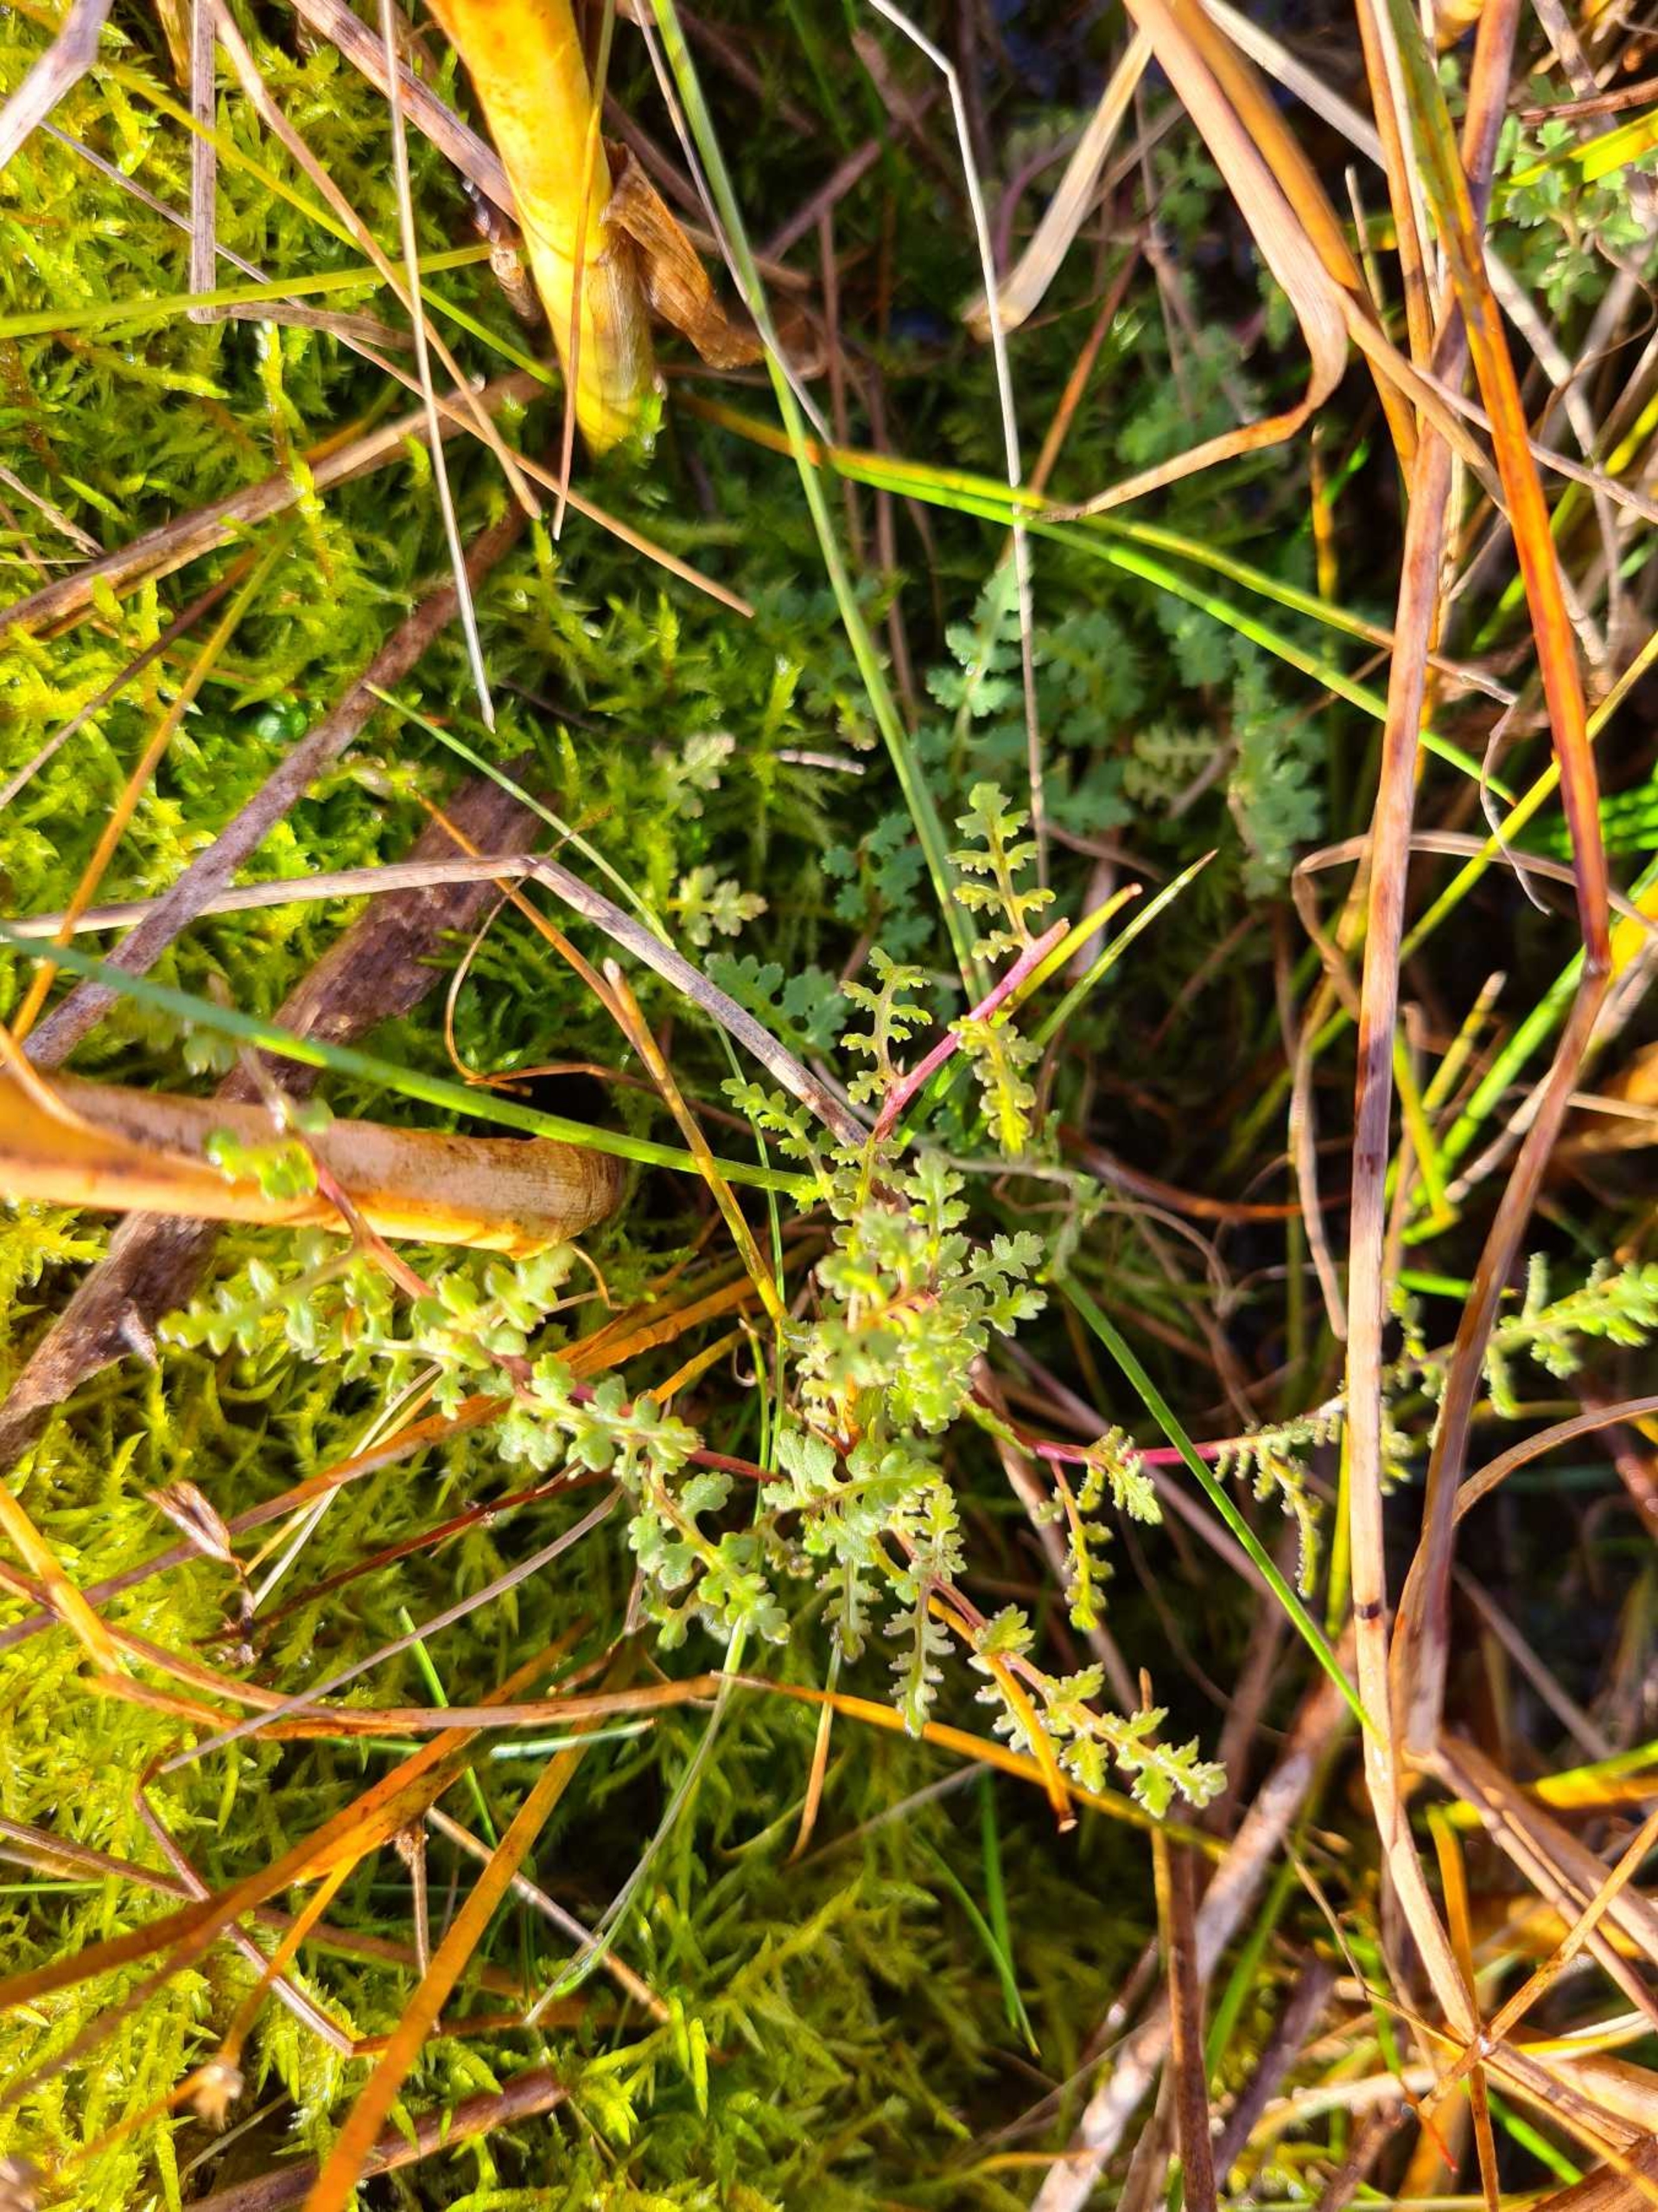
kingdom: Plantae
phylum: Tracheophyta
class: Magnoliopsida
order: Lamiales
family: Orobanchaceae
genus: Pedicularis
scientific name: Pedicularis palustris
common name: Eng-troldurt
